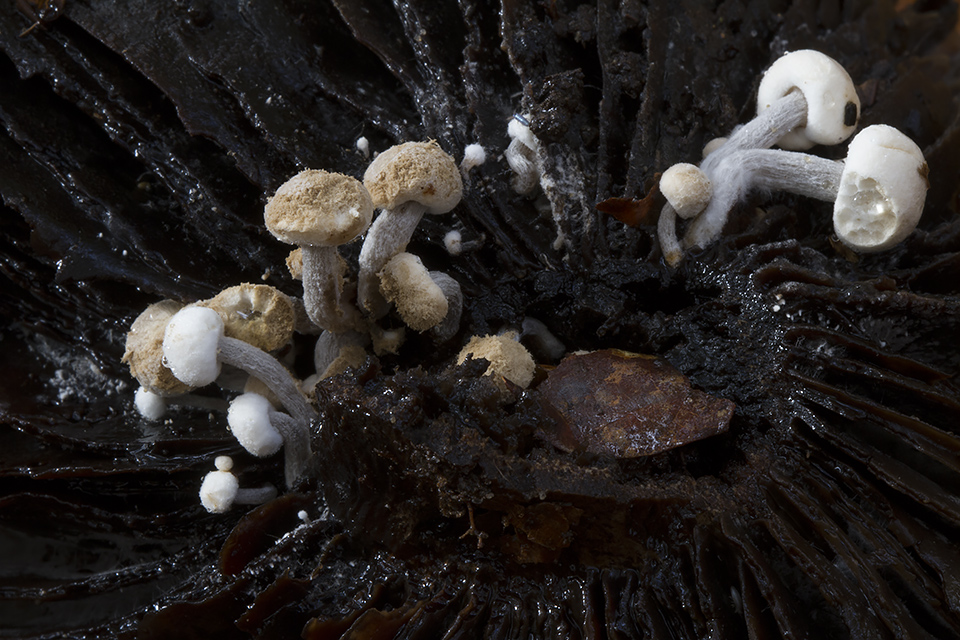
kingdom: Fungi
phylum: Basidiomycota
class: Agaricomycetes
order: Agaricales
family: Lyophyllaceae
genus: Asterophora
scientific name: Asterophora lycoperdoides
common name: brunpudret snyltehat
